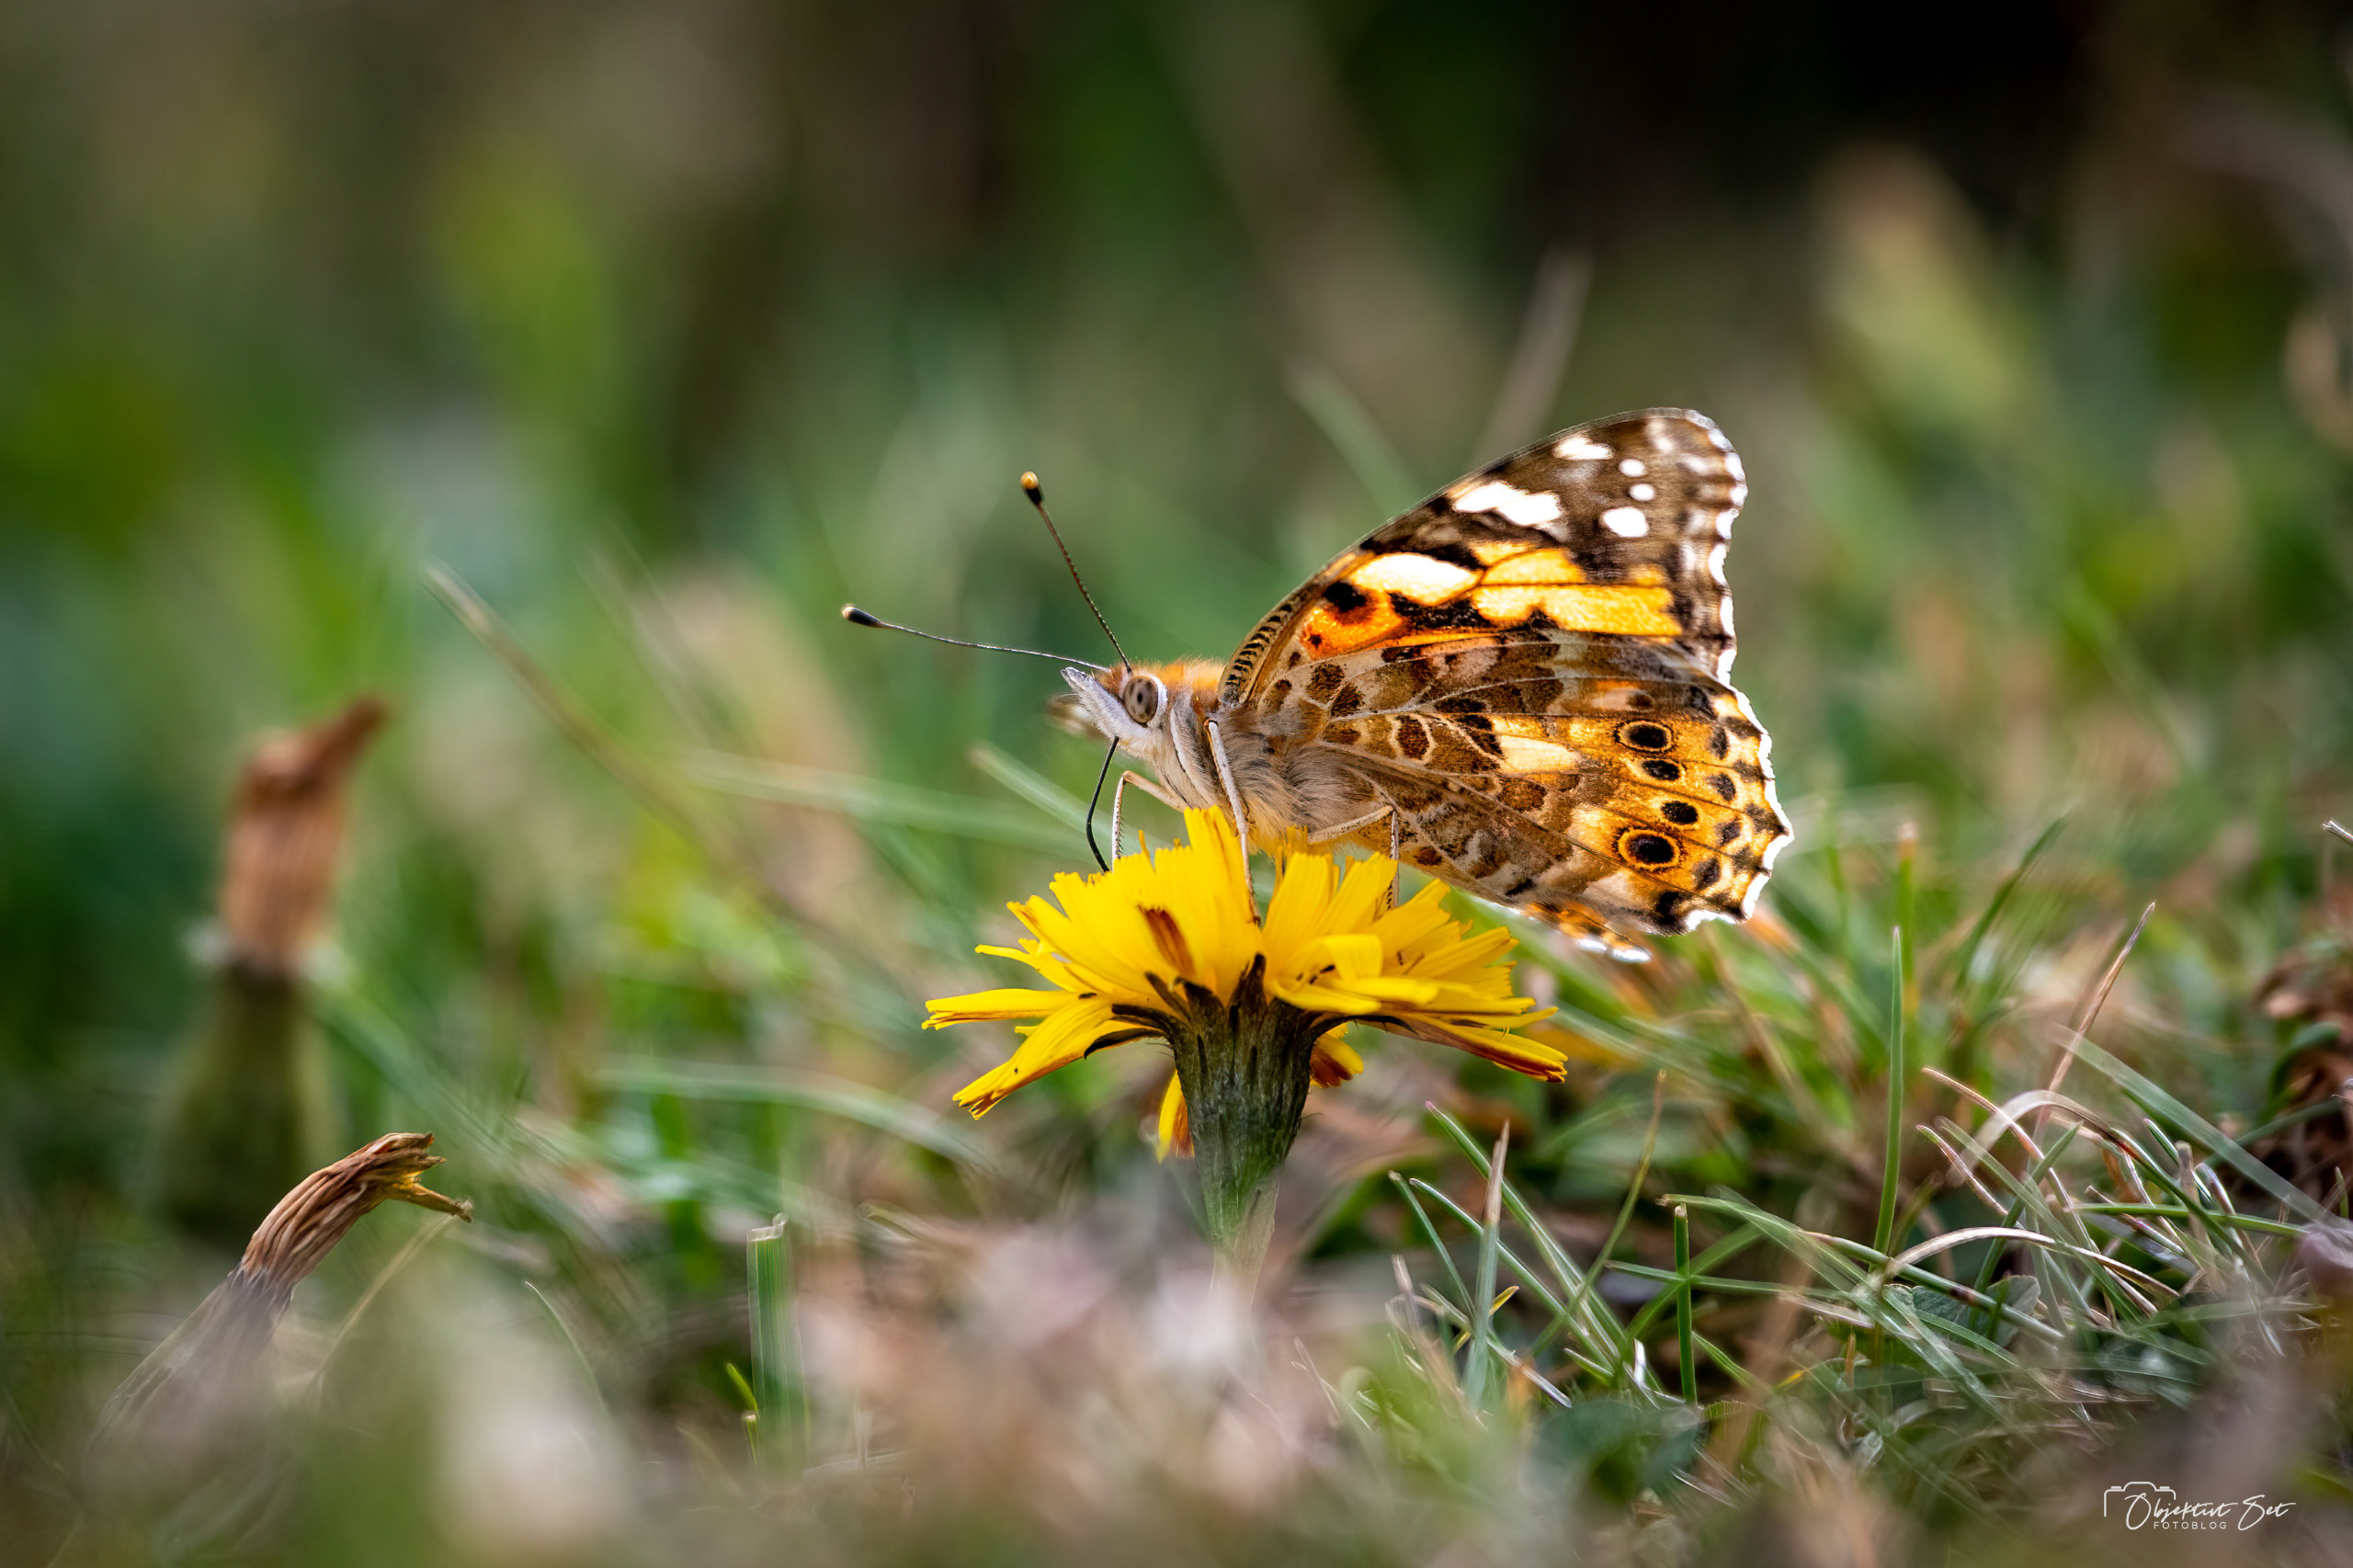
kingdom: Animalia
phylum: Arthropoda
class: Insecta
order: Lepidoptera
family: Nymphalidae
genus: Vanessa
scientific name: Vanessa cardui
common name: Tidselsommerfugl
